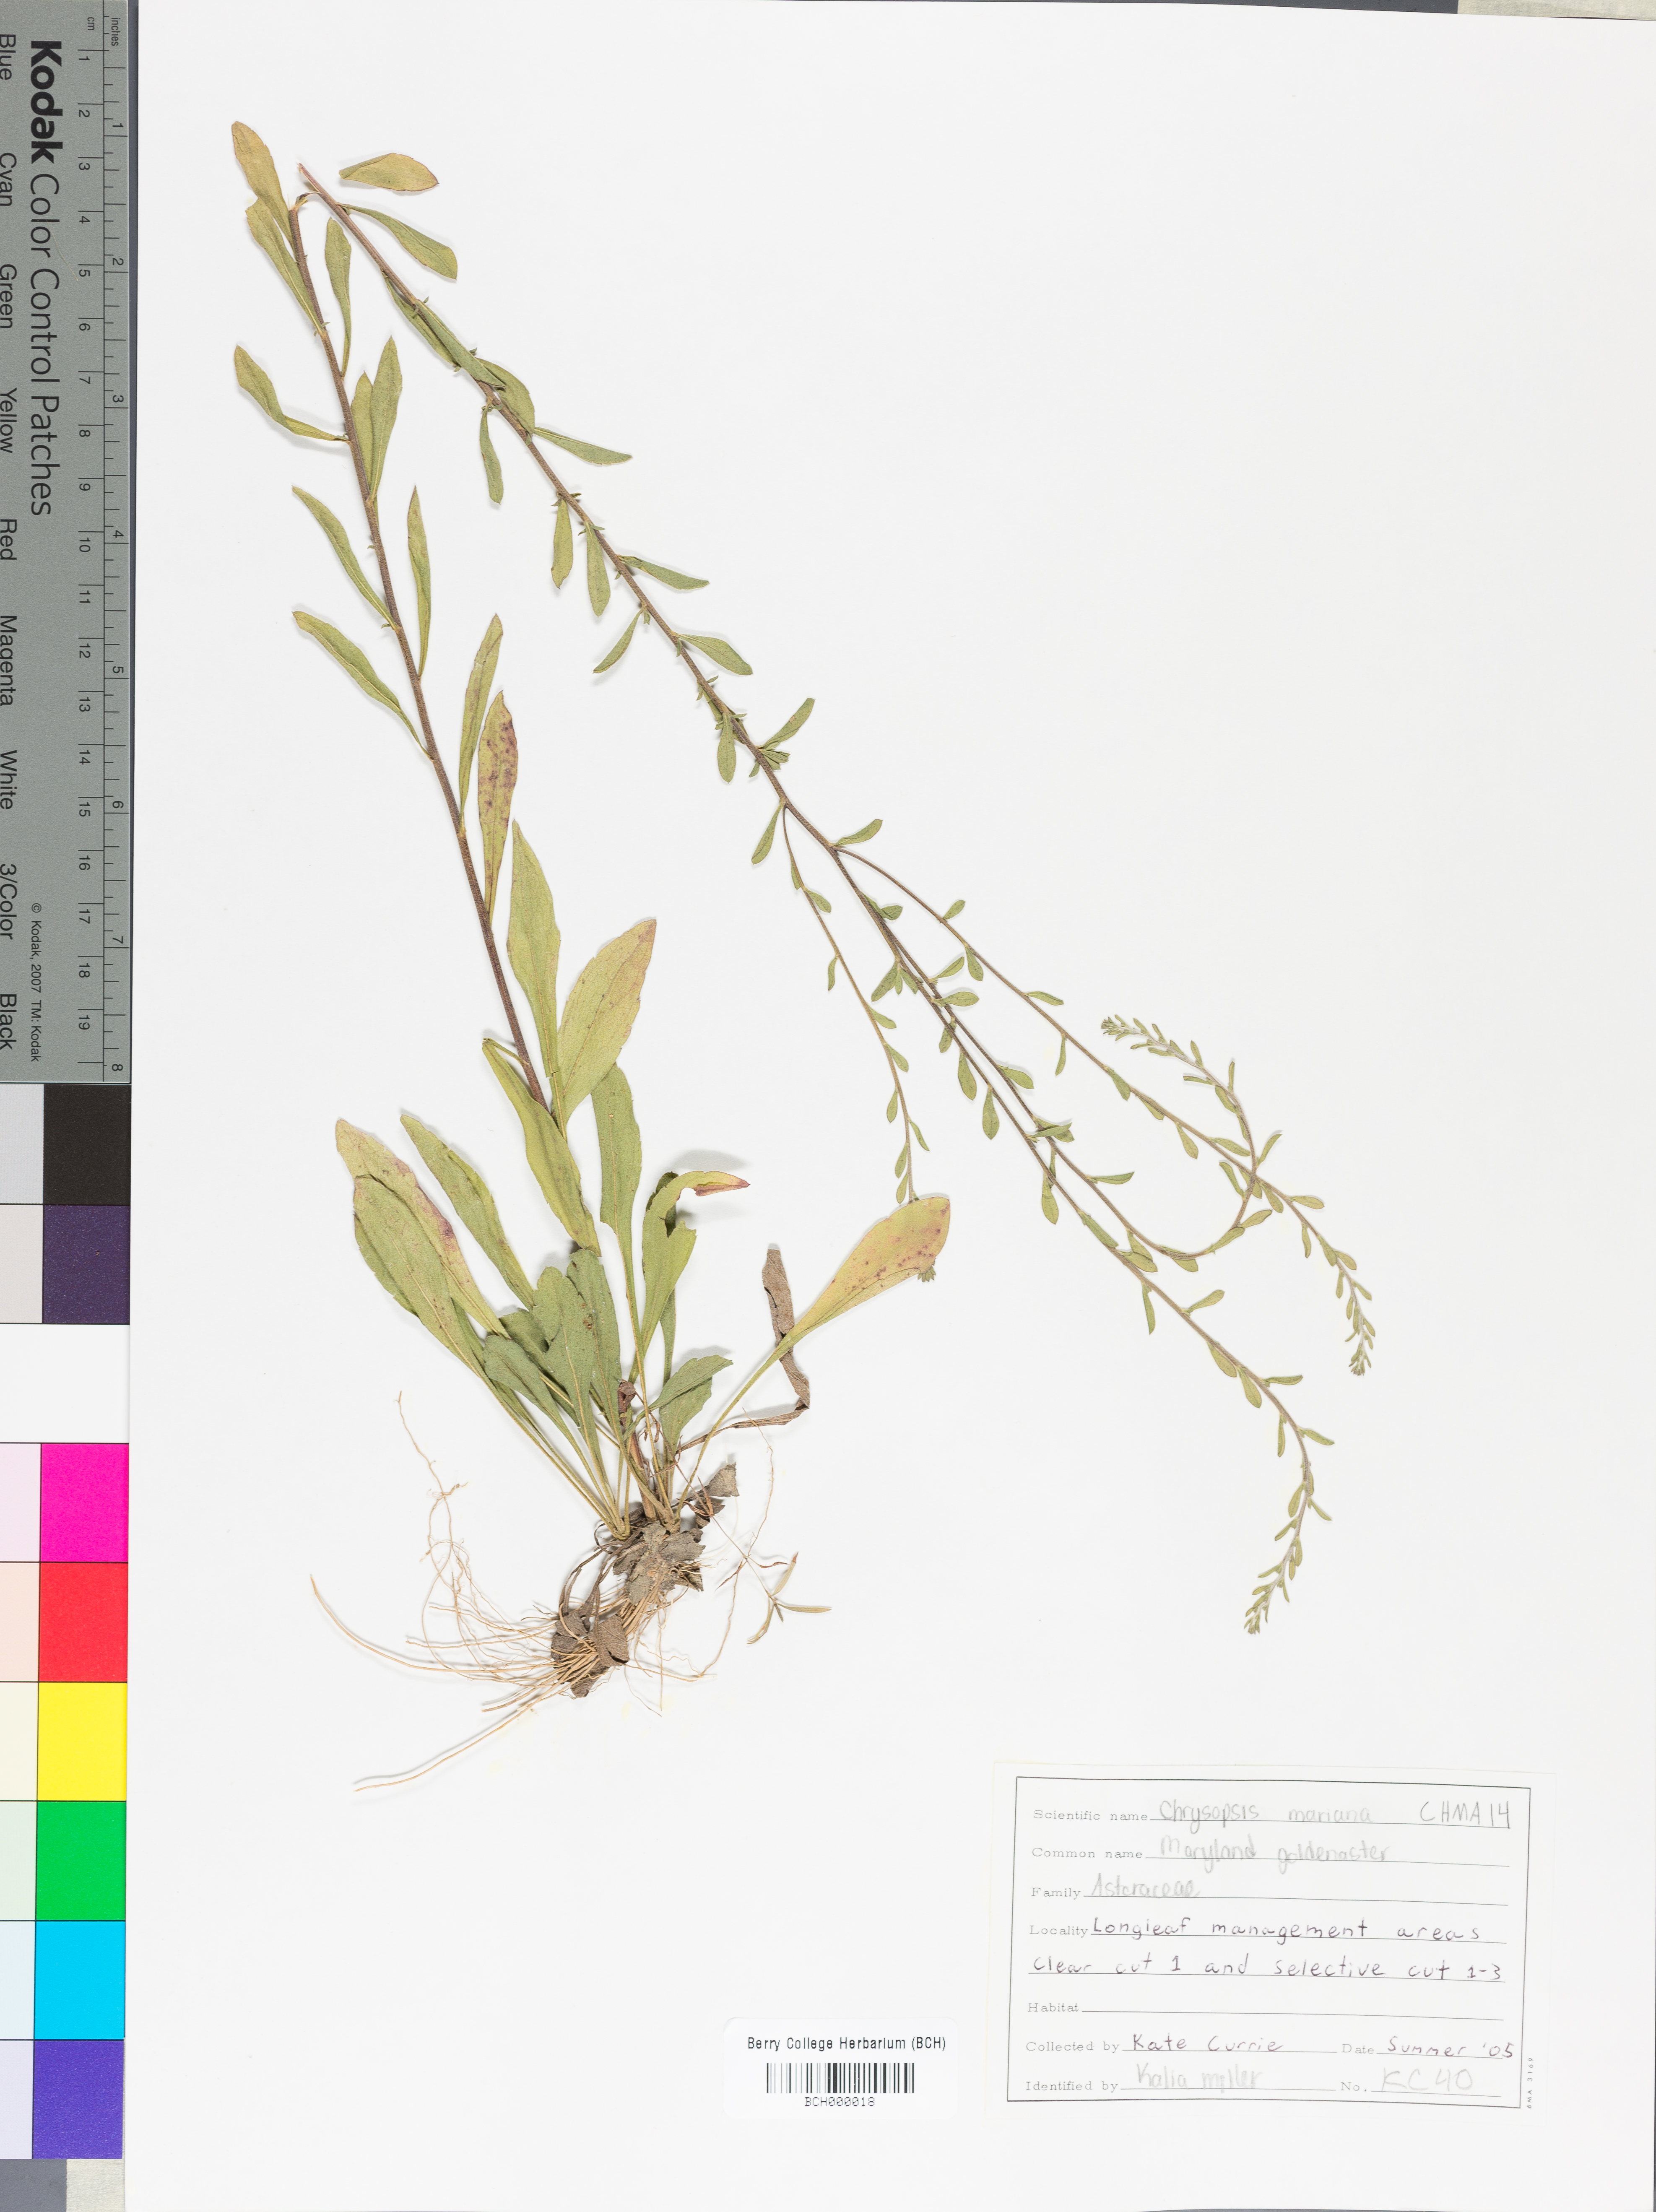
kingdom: Plantae
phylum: Tracheophyta
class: Magnoliopsida
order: Asterales
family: Asteraceae
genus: Chrysopsis
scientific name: Chrysopsis mariana
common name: Maryland golden-aster
